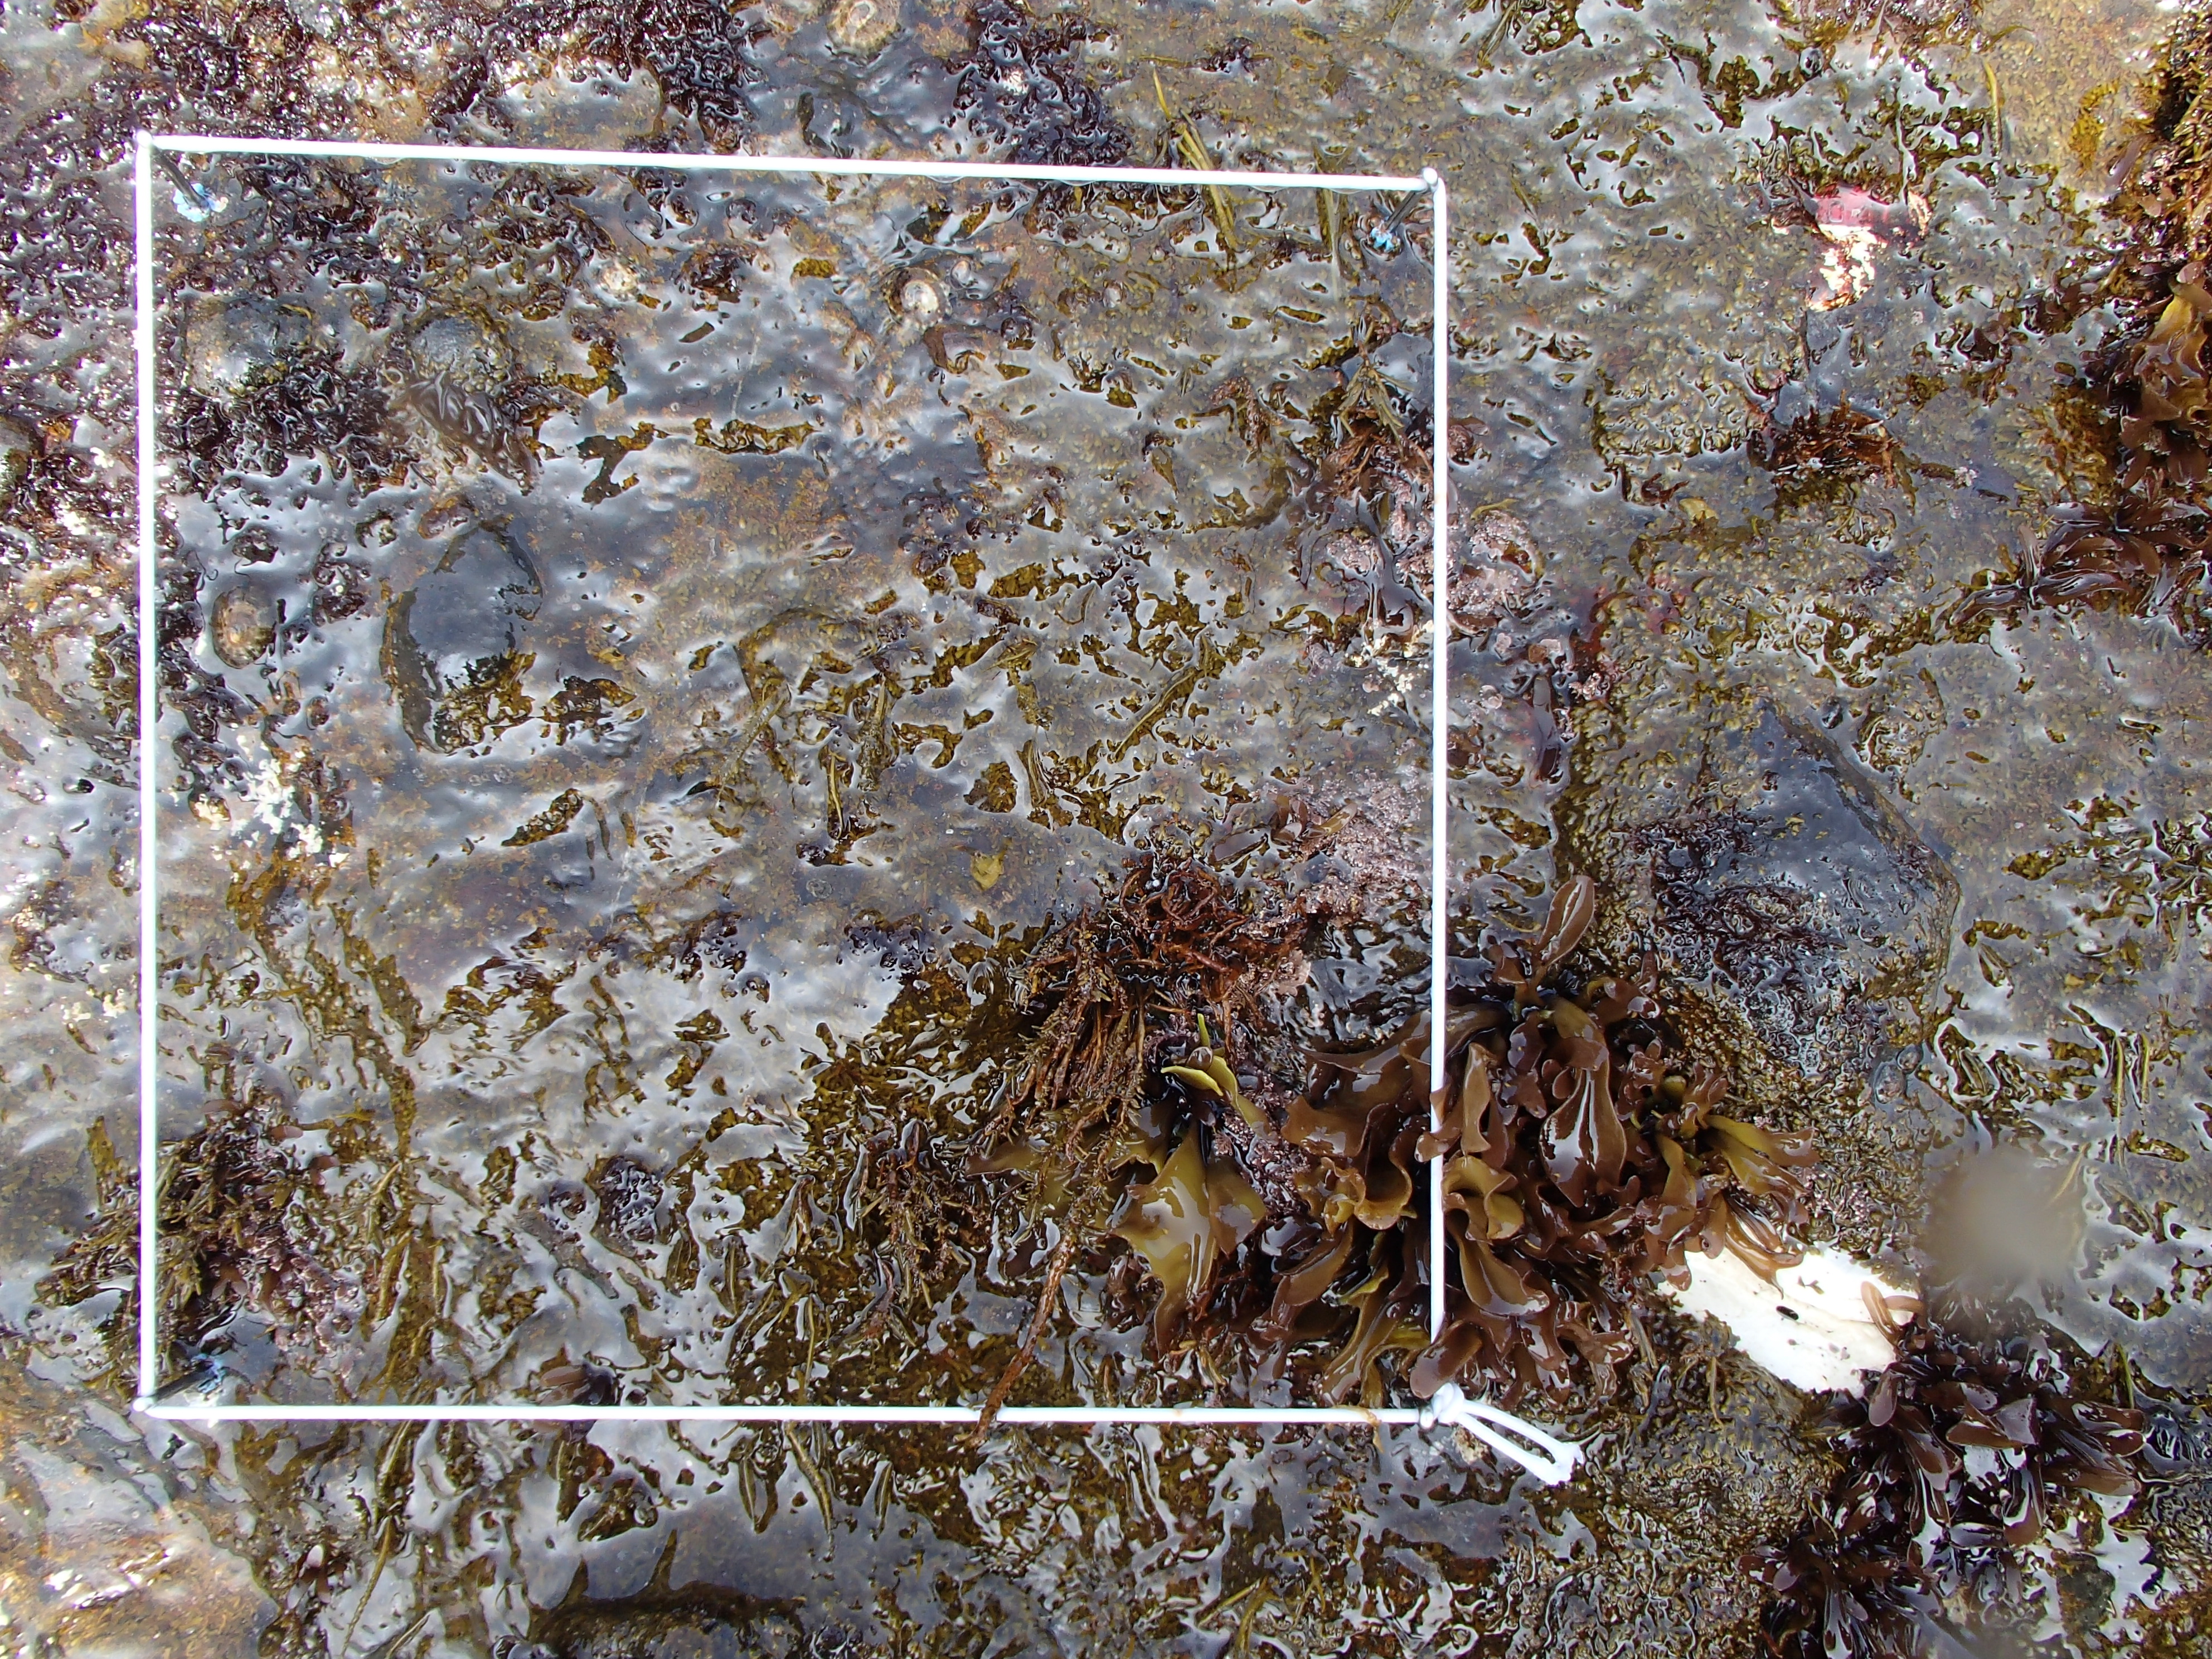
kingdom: Plantae
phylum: Rhodophyta
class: Florideophyceae
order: Corallinales
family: Corallinaceae
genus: Corallina
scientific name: Corallina pilulifera
